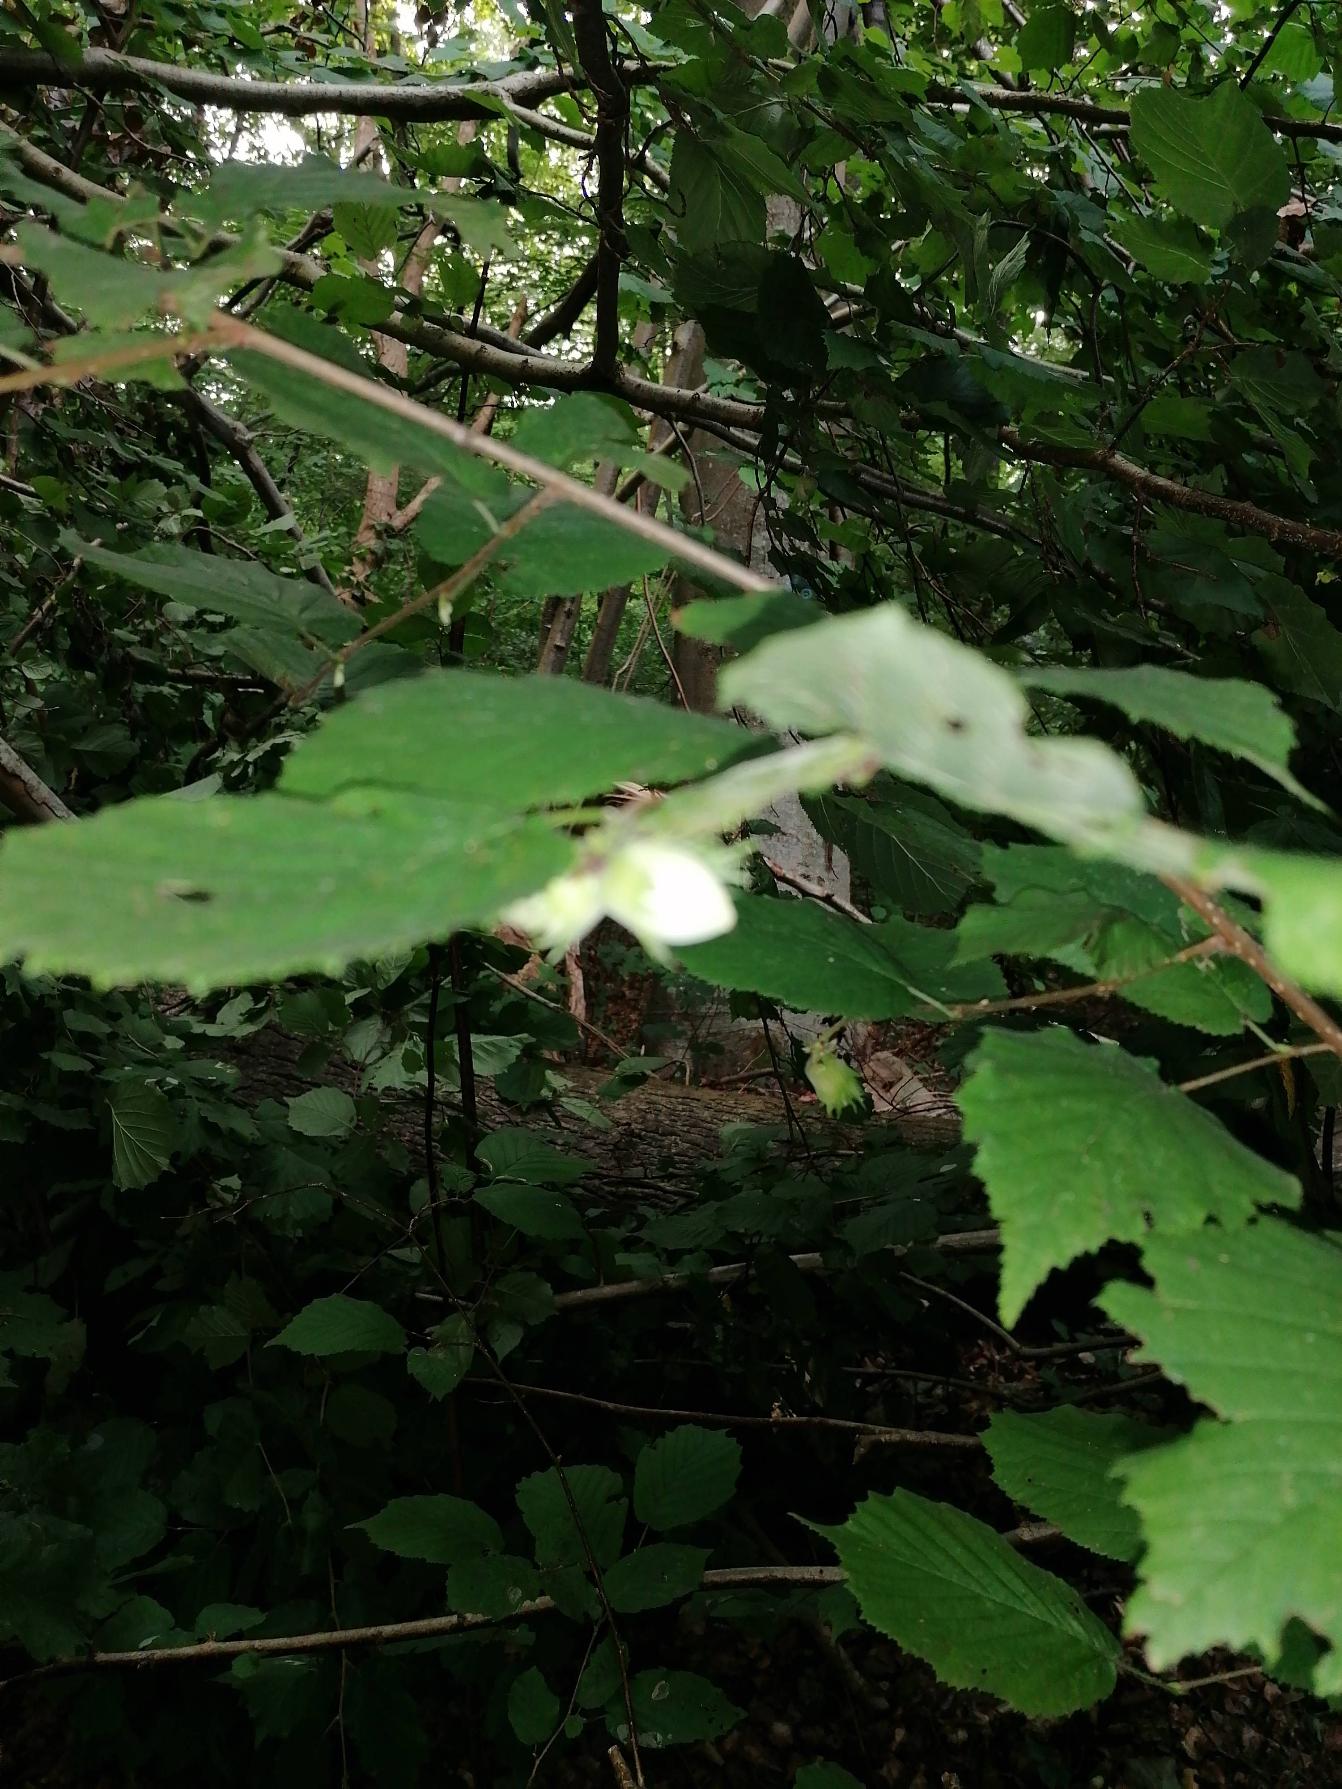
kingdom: Plantae
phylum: Tracheophyta
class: Magnoliopsida
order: Fagales
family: Betulaceae
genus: Corylus
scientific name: Corylus avellana
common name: Hassel
